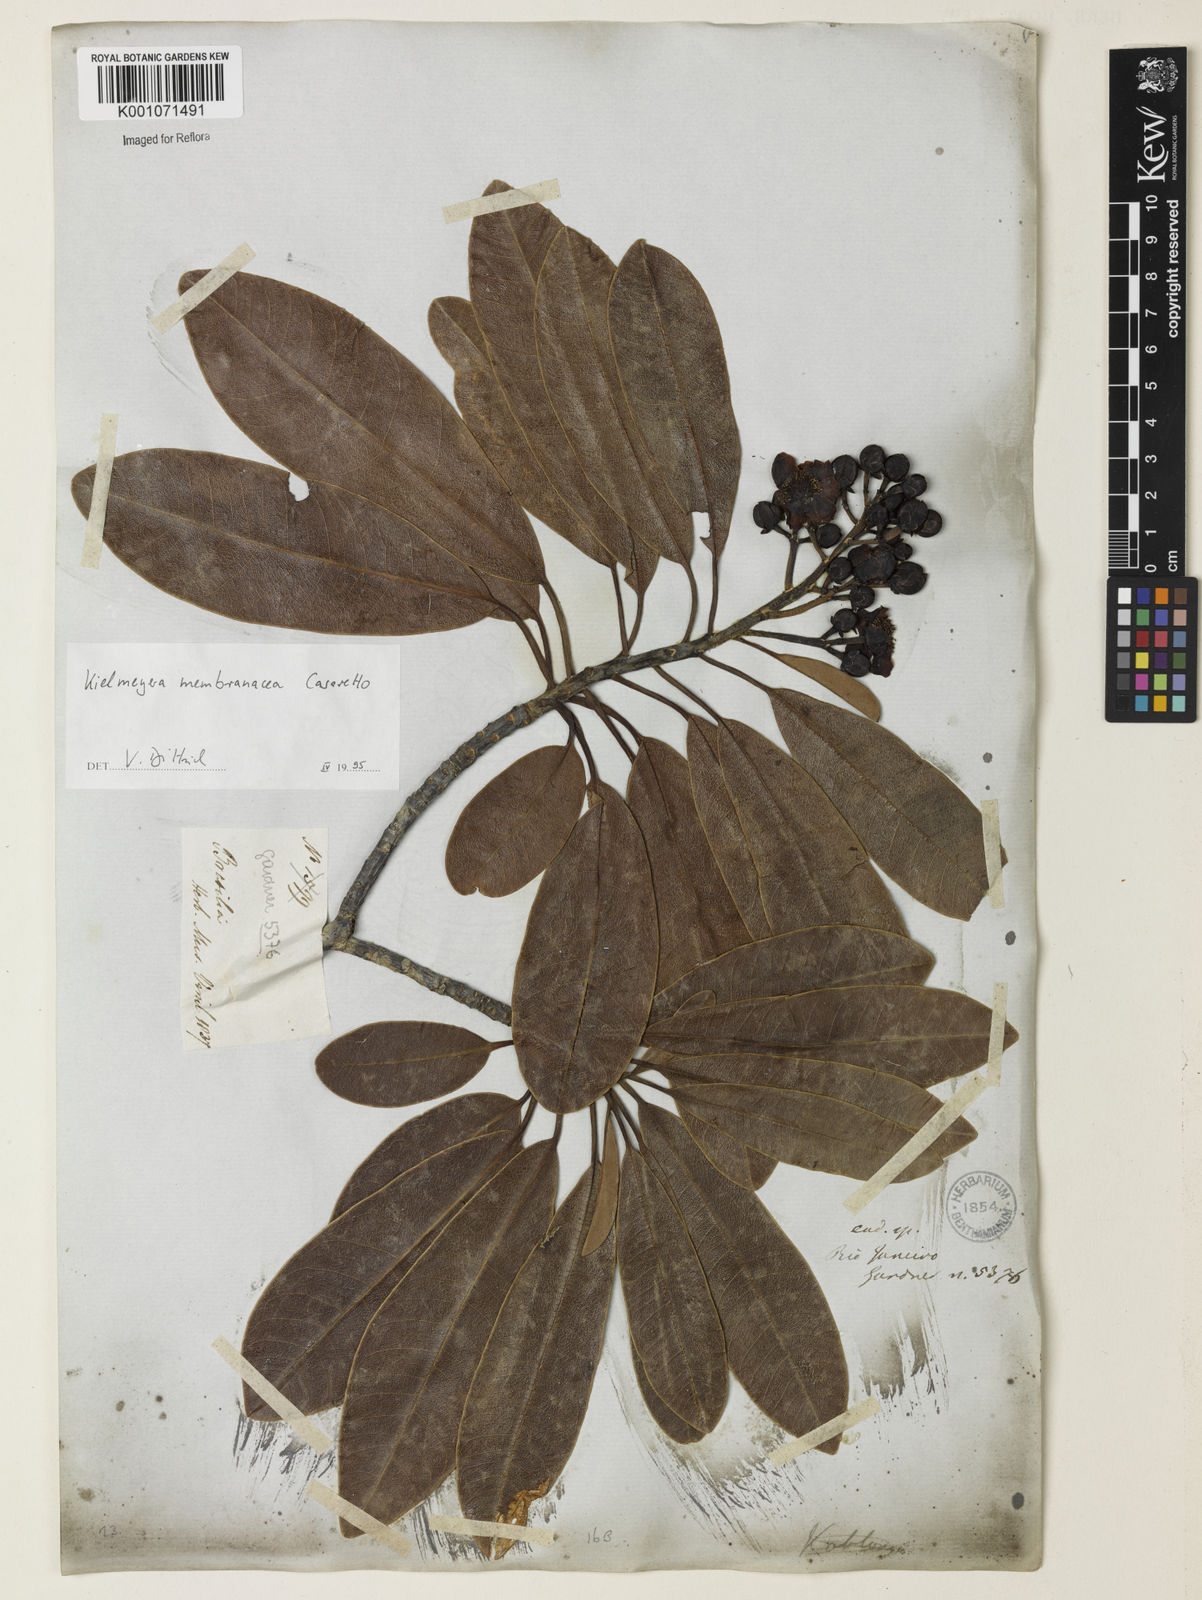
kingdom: Plantae
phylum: Tracheophyta
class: Magnoliopsida
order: Malpighiales
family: Calophyllaceae
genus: Kielmeyera
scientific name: Kielmeyera membranacea
